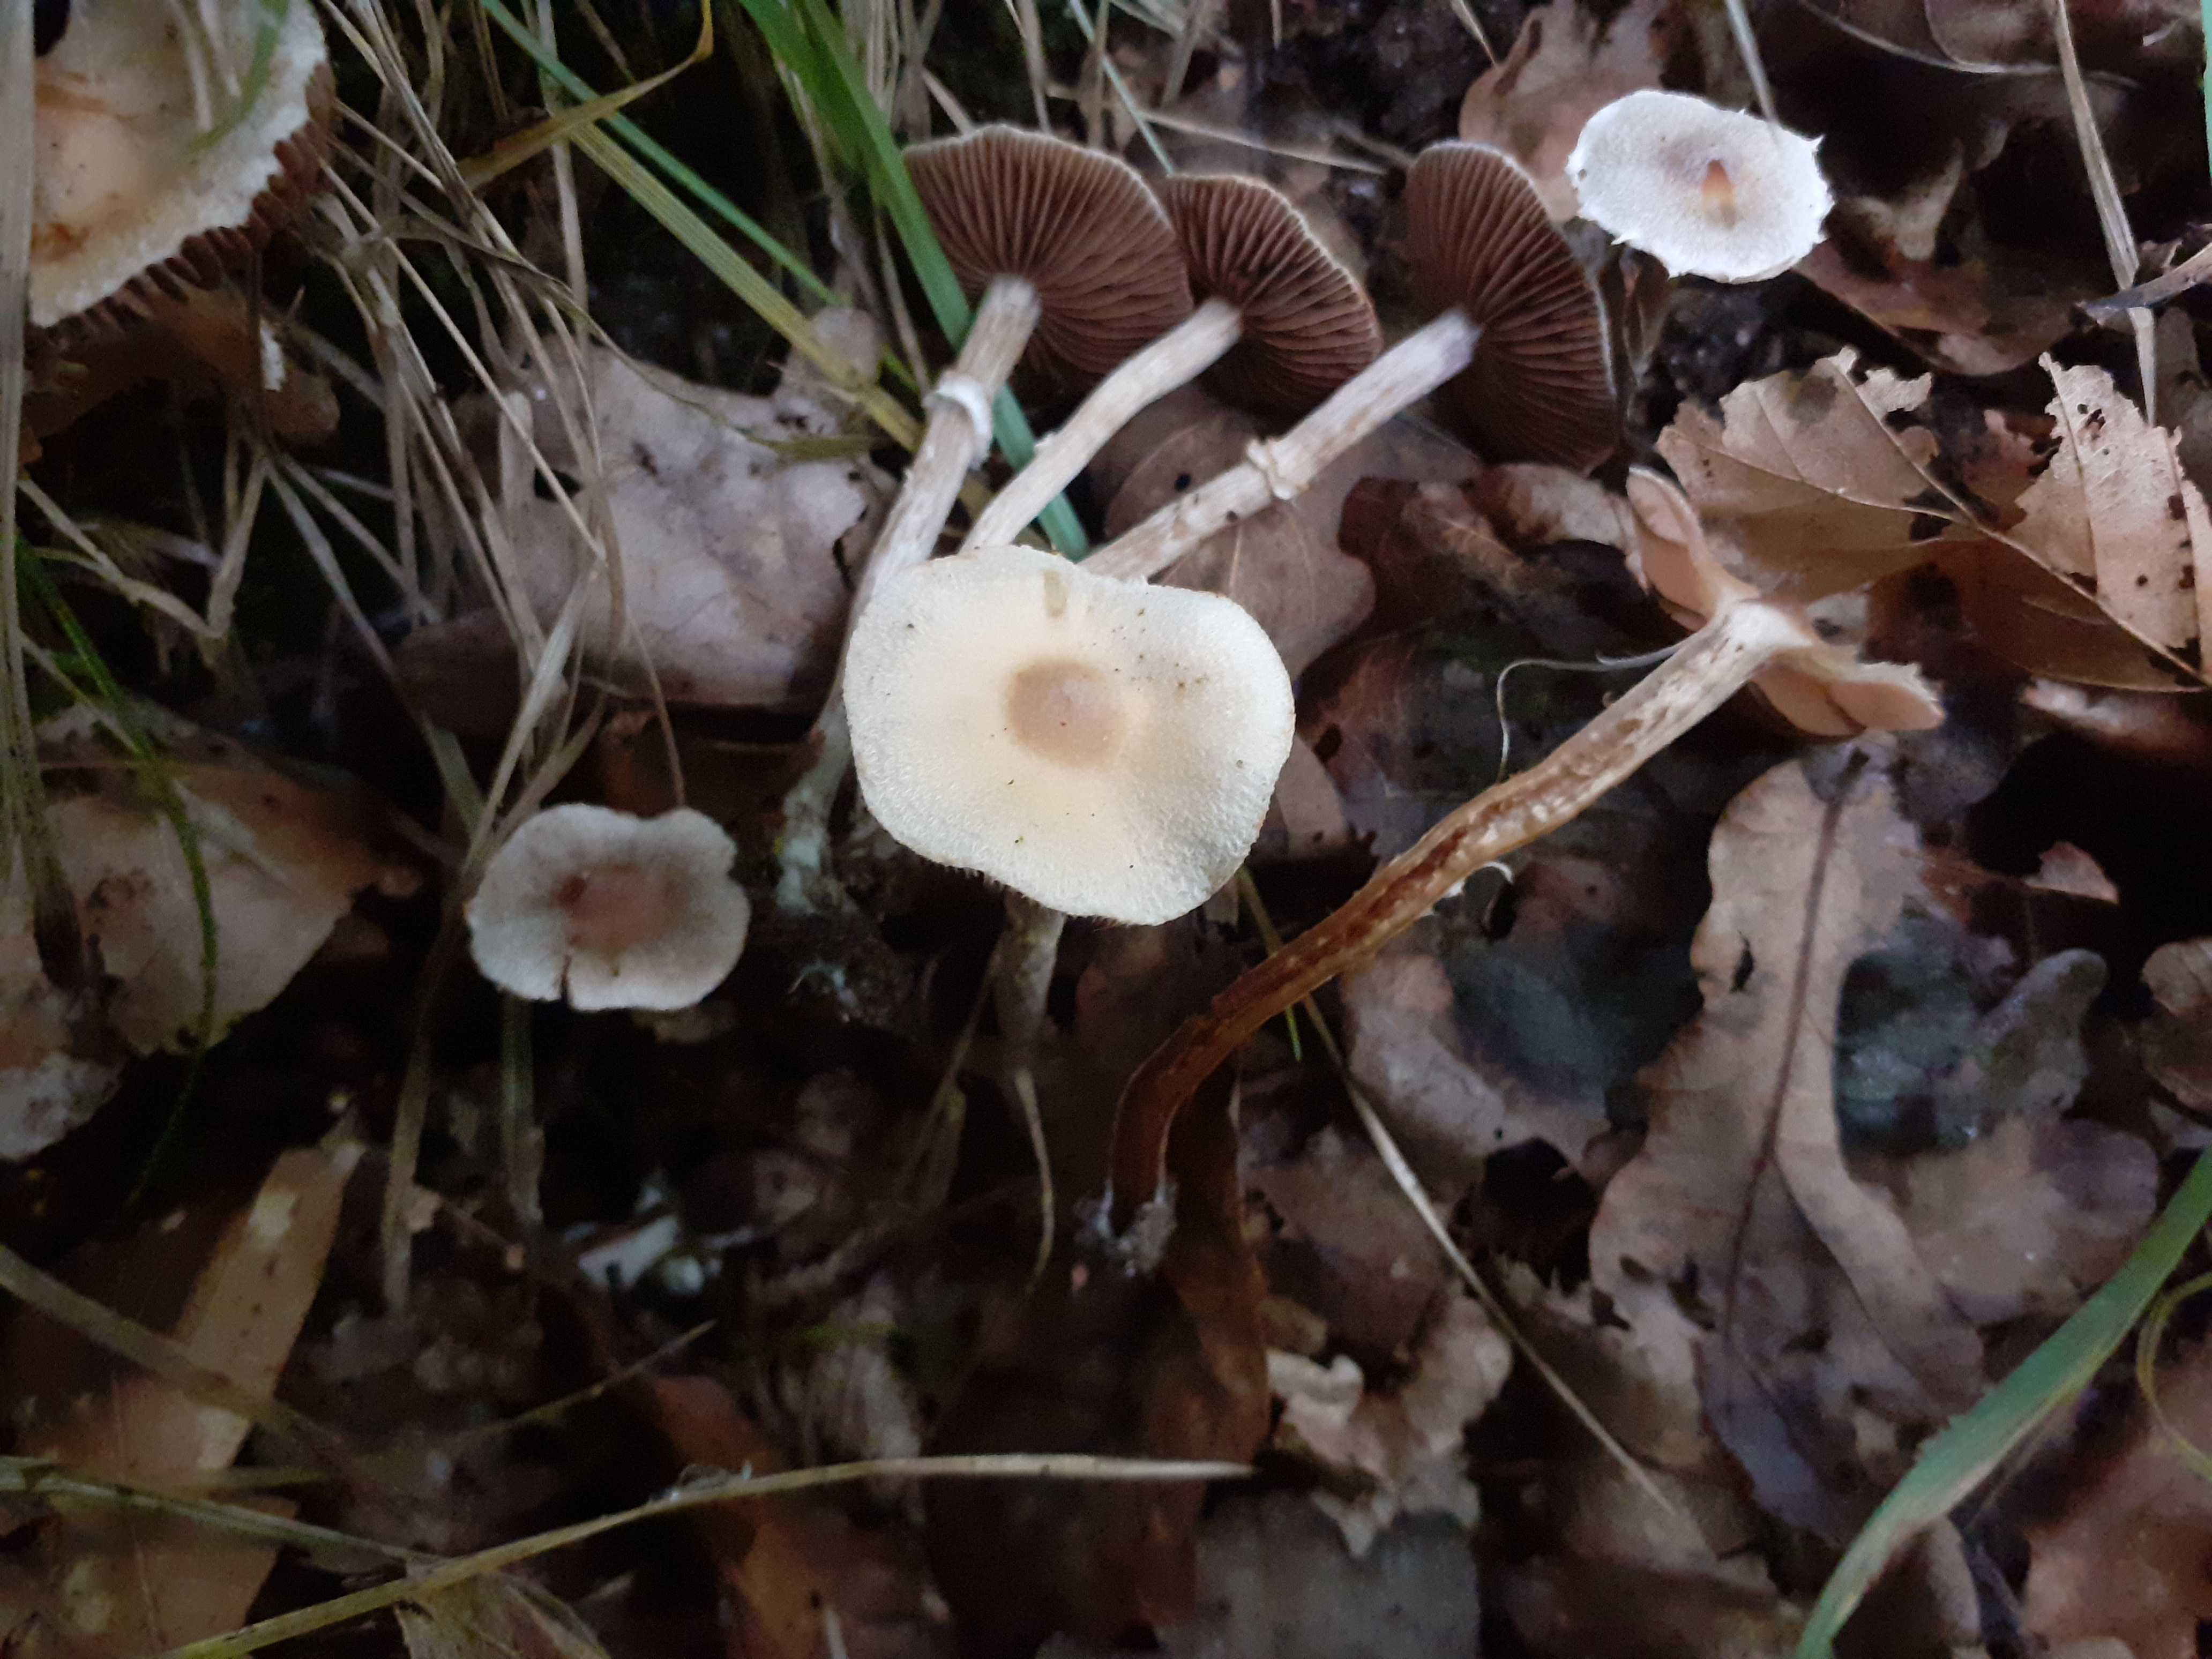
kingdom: Fungi
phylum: Basidiomycota
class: Agaricomycetes
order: Agaricales
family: Cortinariaceae
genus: Cortinarius
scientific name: Cortinarius geraniolens
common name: geranium-slørhat
